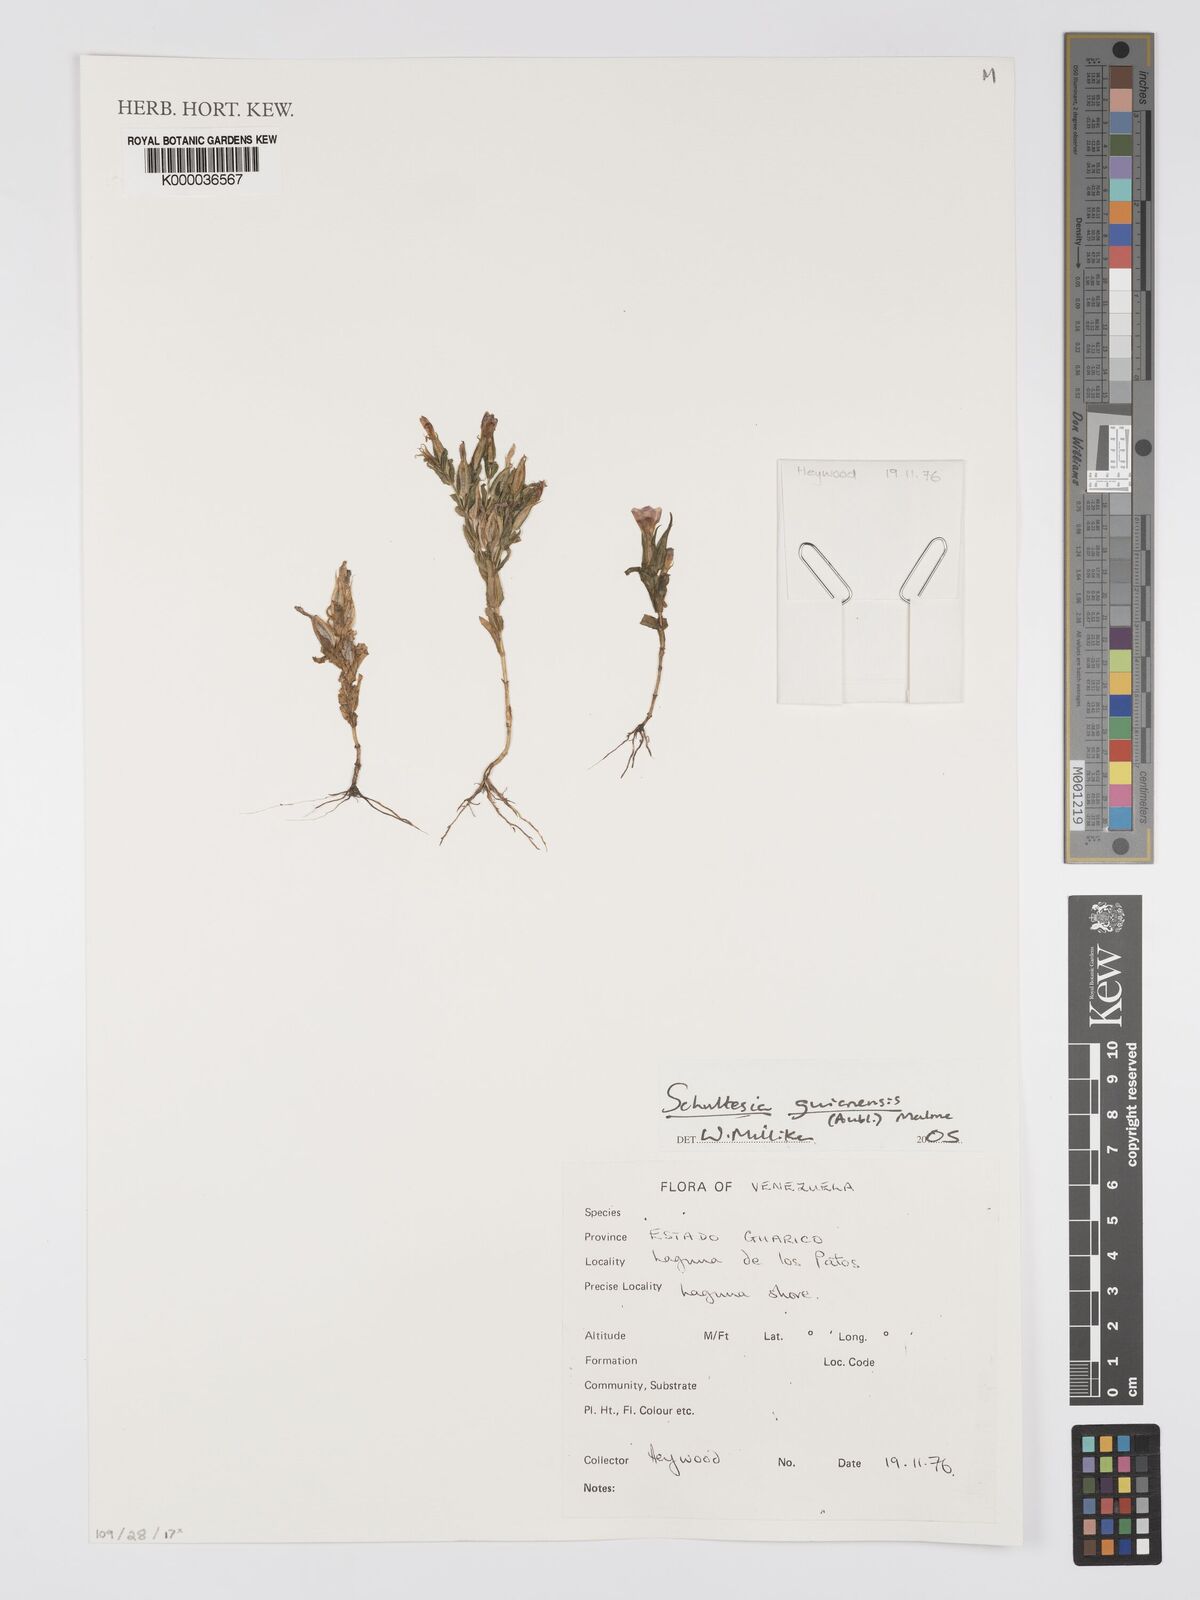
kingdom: Plantae
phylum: Tracheophyta
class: Magnoliopsida
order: Gentianales
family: Gentianaceae
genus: Schultesia
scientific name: Schultesia guianensis
